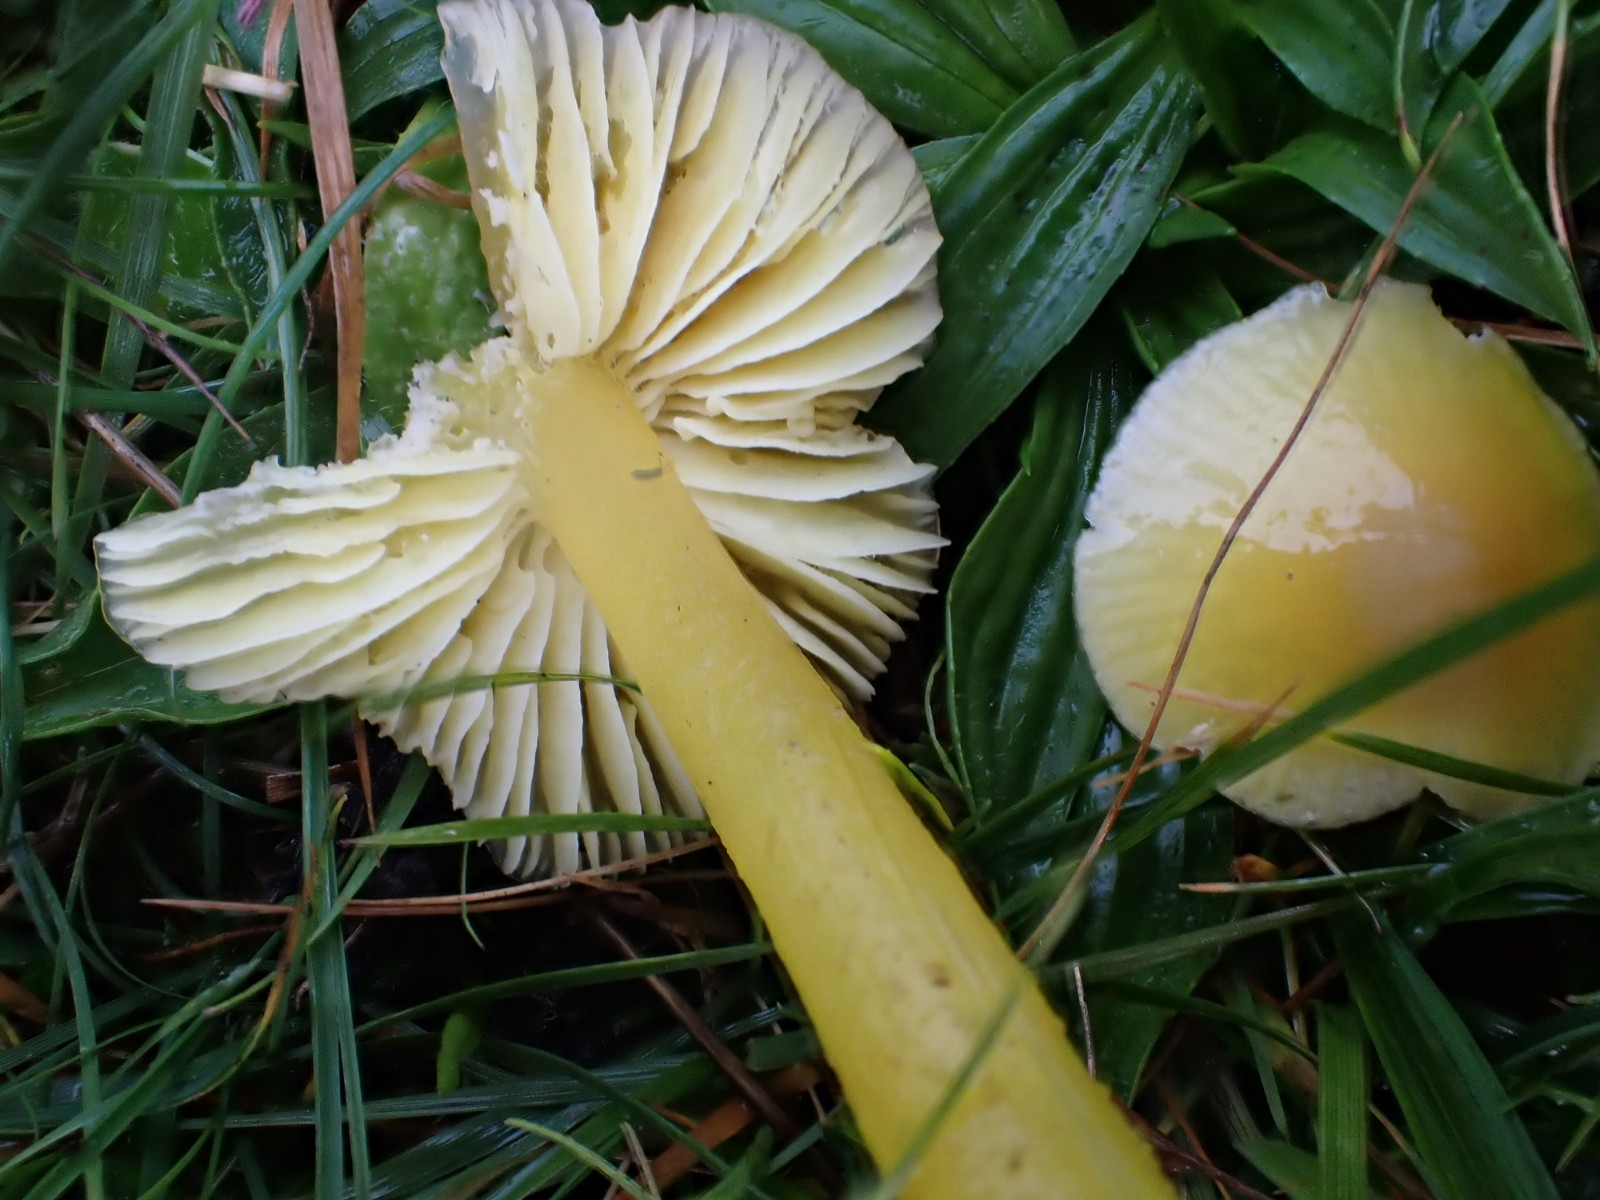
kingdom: Fungi
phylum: Basidiomycota
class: Agaricomycetes
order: Agaricales
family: Hygrophoraceae
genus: Hygrocybe
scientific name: Hygrocybe chlorophana
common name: gul vokshat
